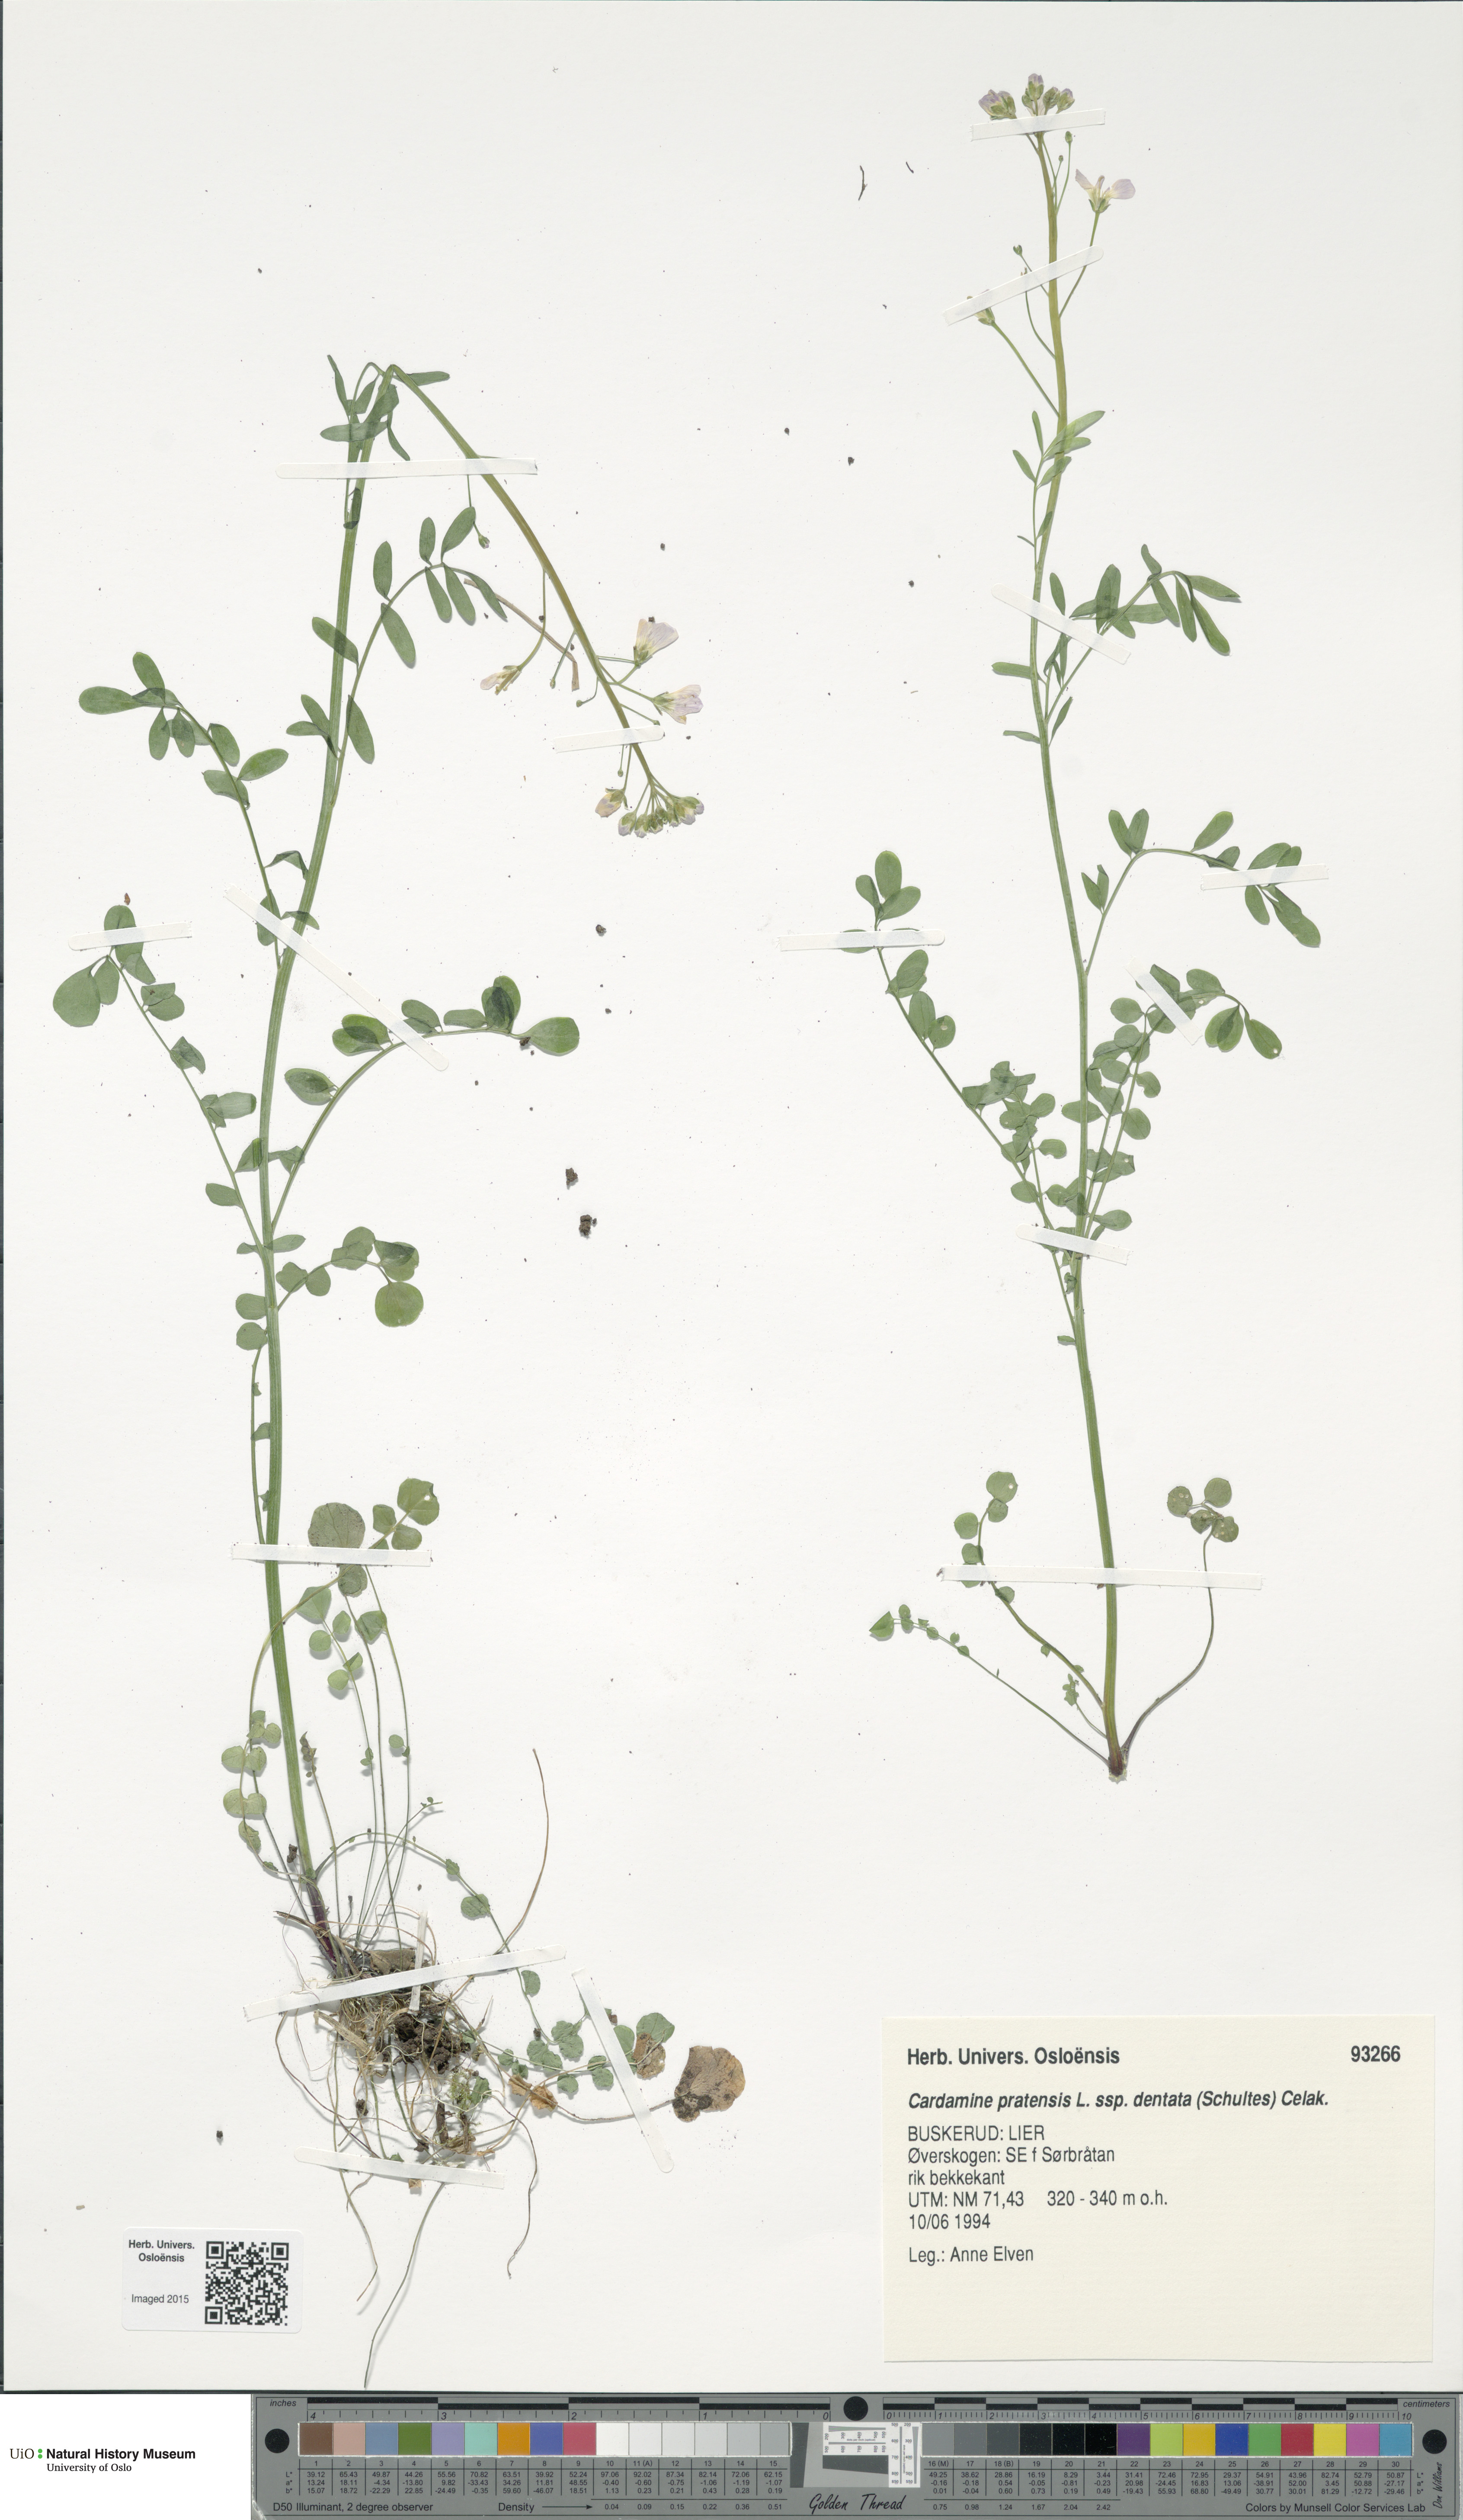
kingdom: Plantae
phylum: Tracheophyta
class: Magnoliopsida
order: Brassicales
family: Brassicaceae
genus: Cardamine
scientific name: Cardamine dentata
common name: Toothed bittercress
